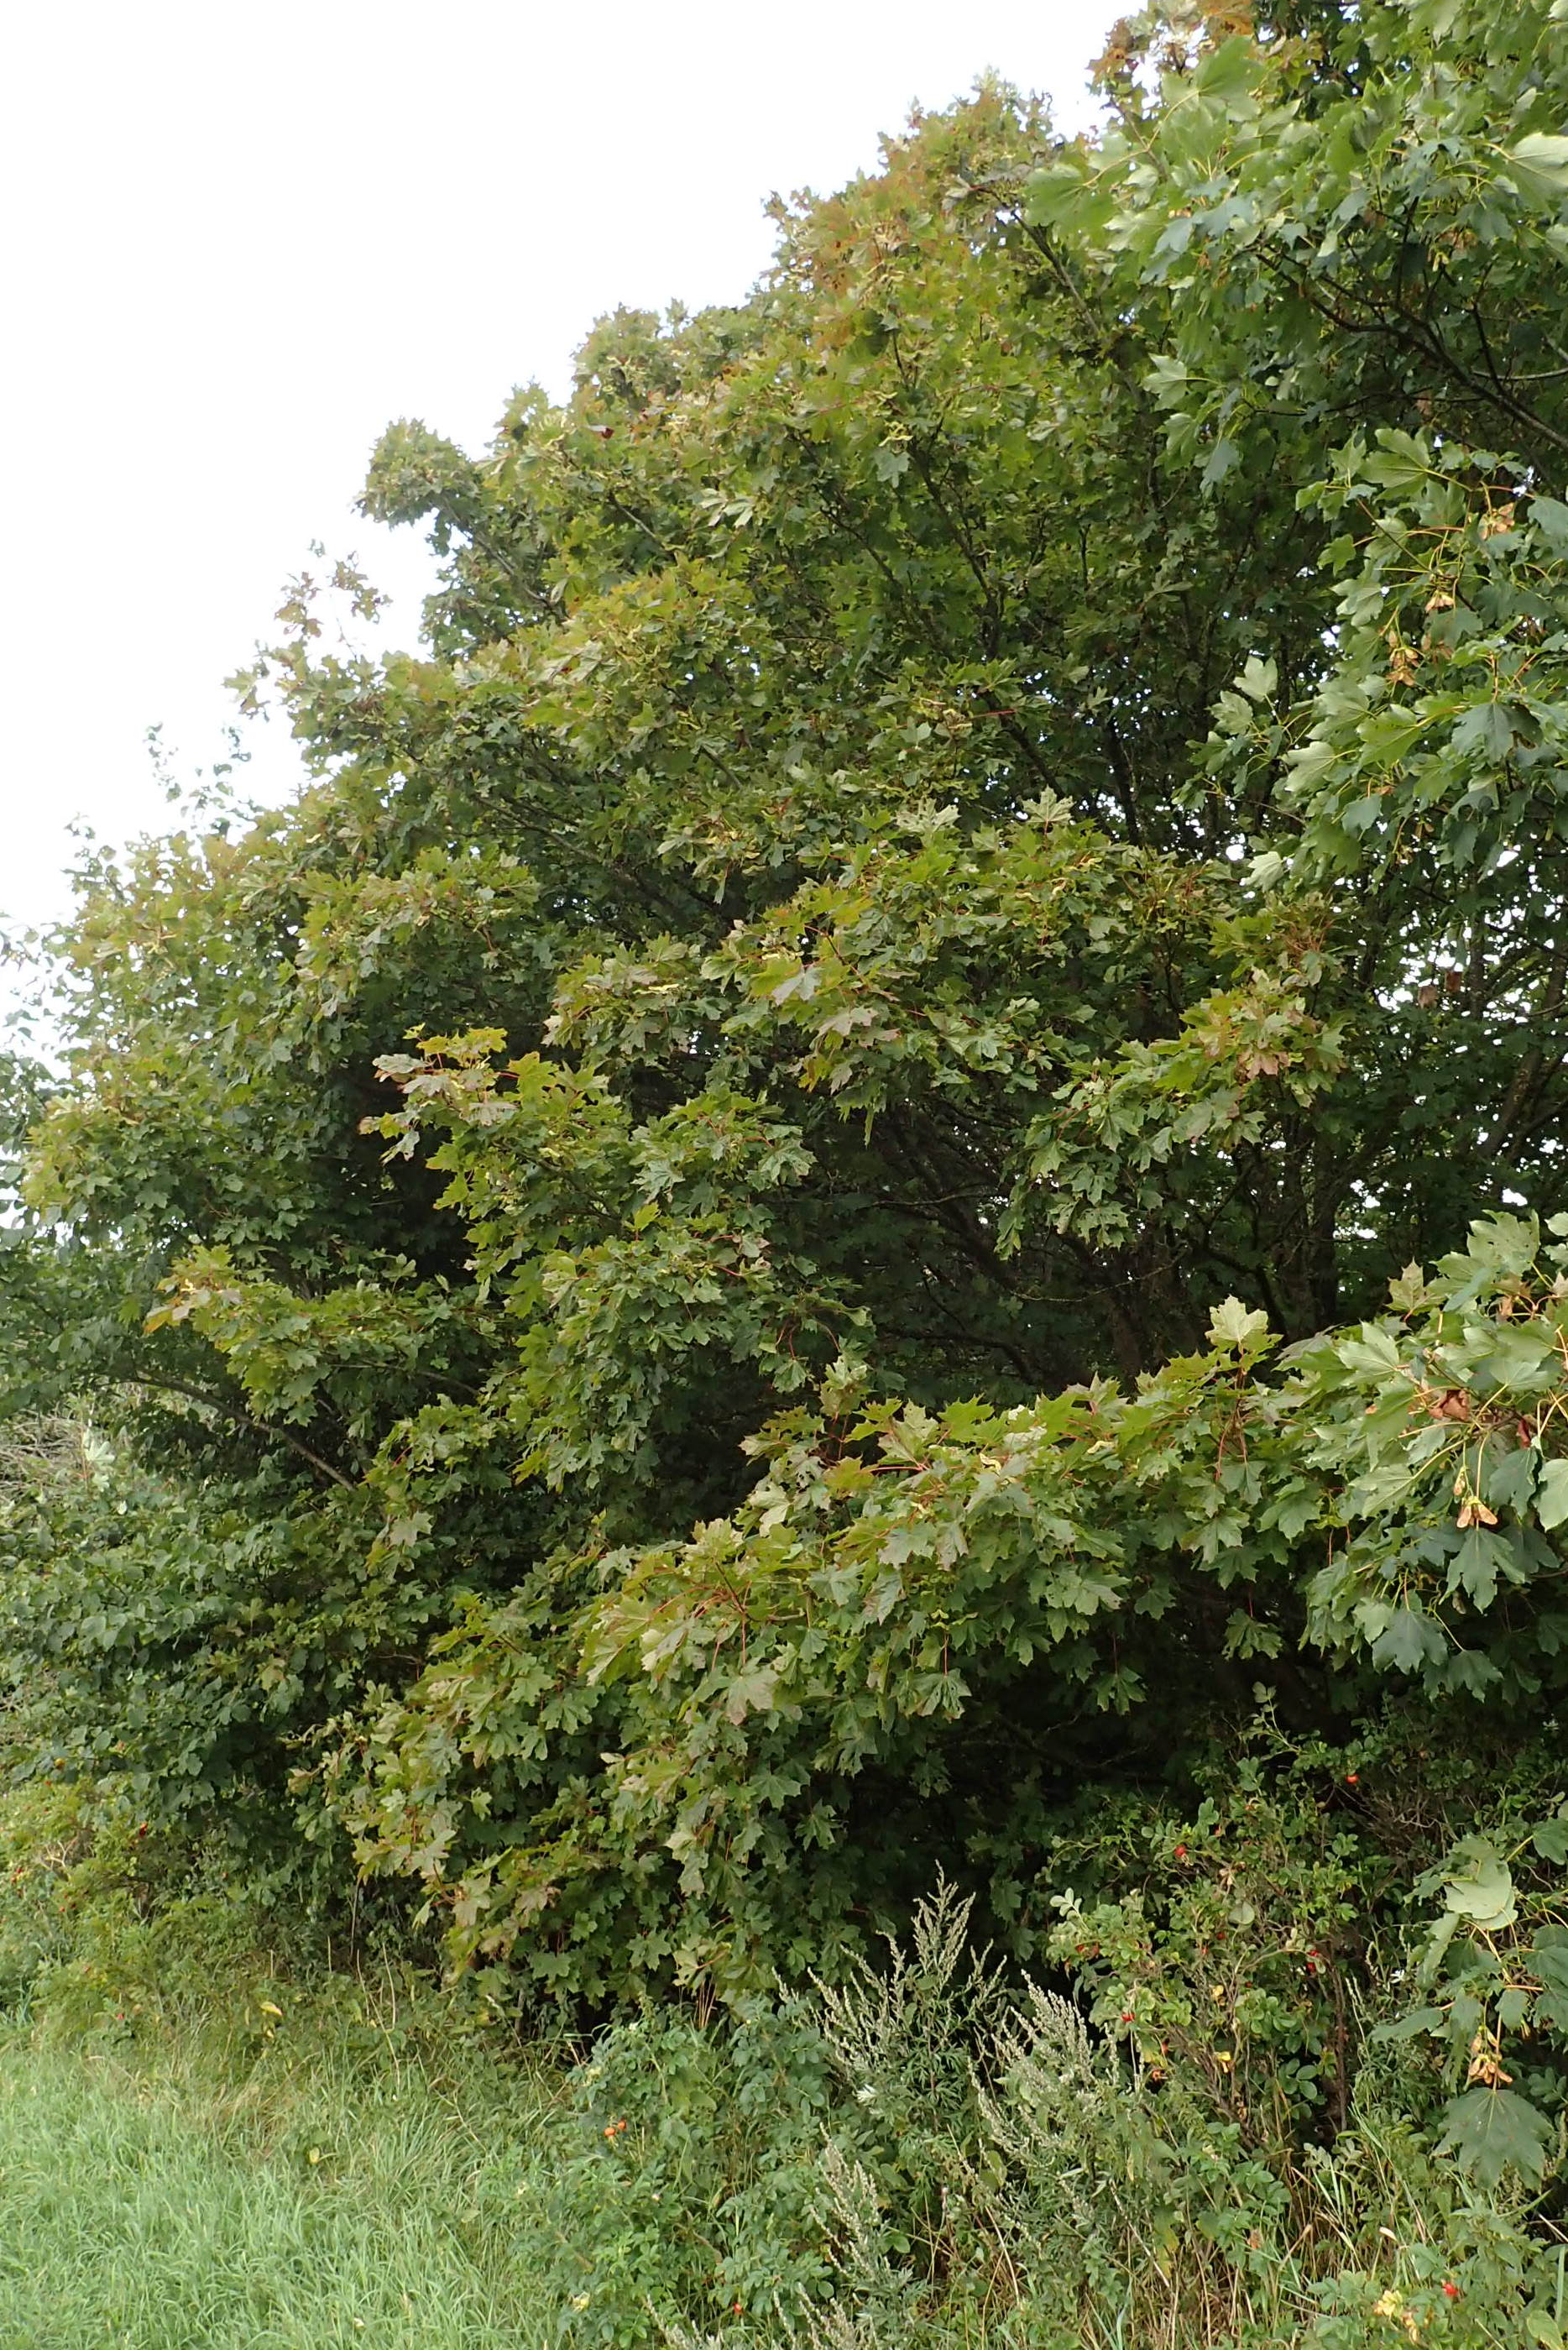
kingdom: Plantae
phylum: Tracheophyta
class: Magnoliopsida
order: Sapindales
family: Sapindaceae
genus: Acer
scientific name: Acer platanoides
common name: Spids-løn
